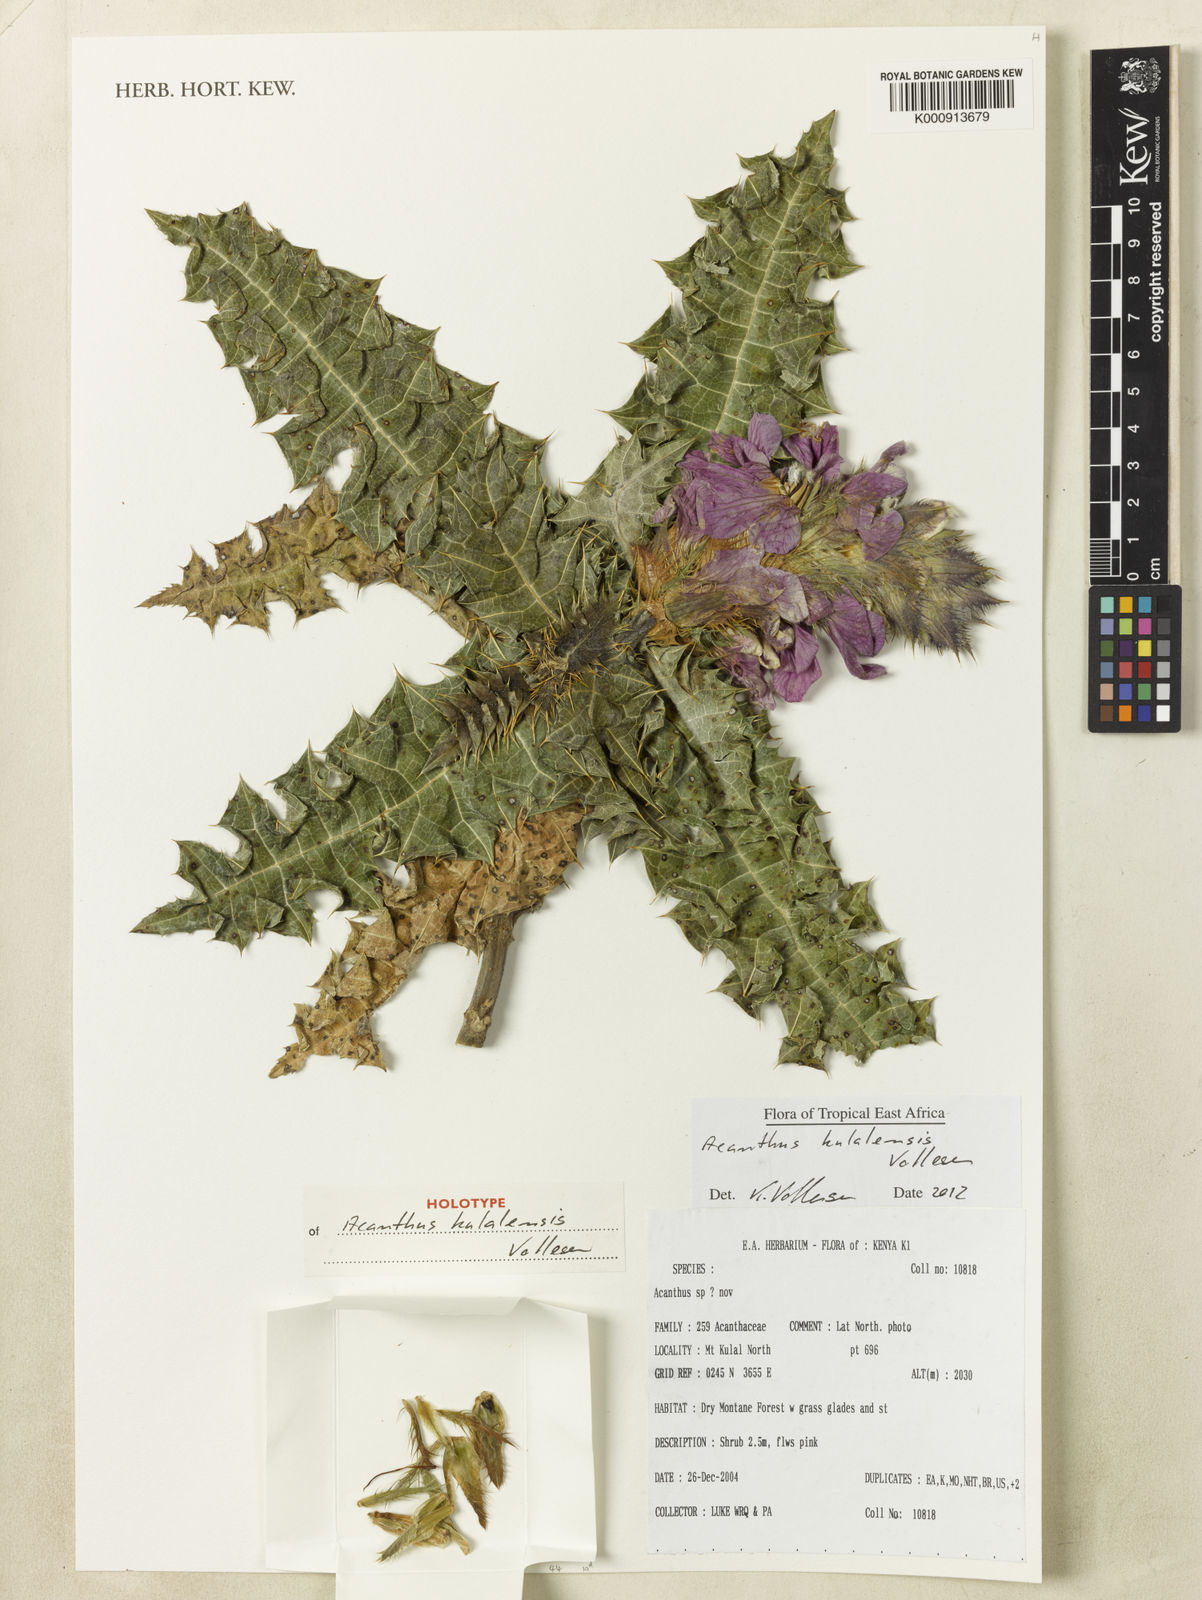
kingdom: Plantae
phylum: Tracheophyta
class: Magnoliopsida
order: Lamiales
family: Acanthaceae
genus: Acanthus
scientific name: Acanthus kulalensis
